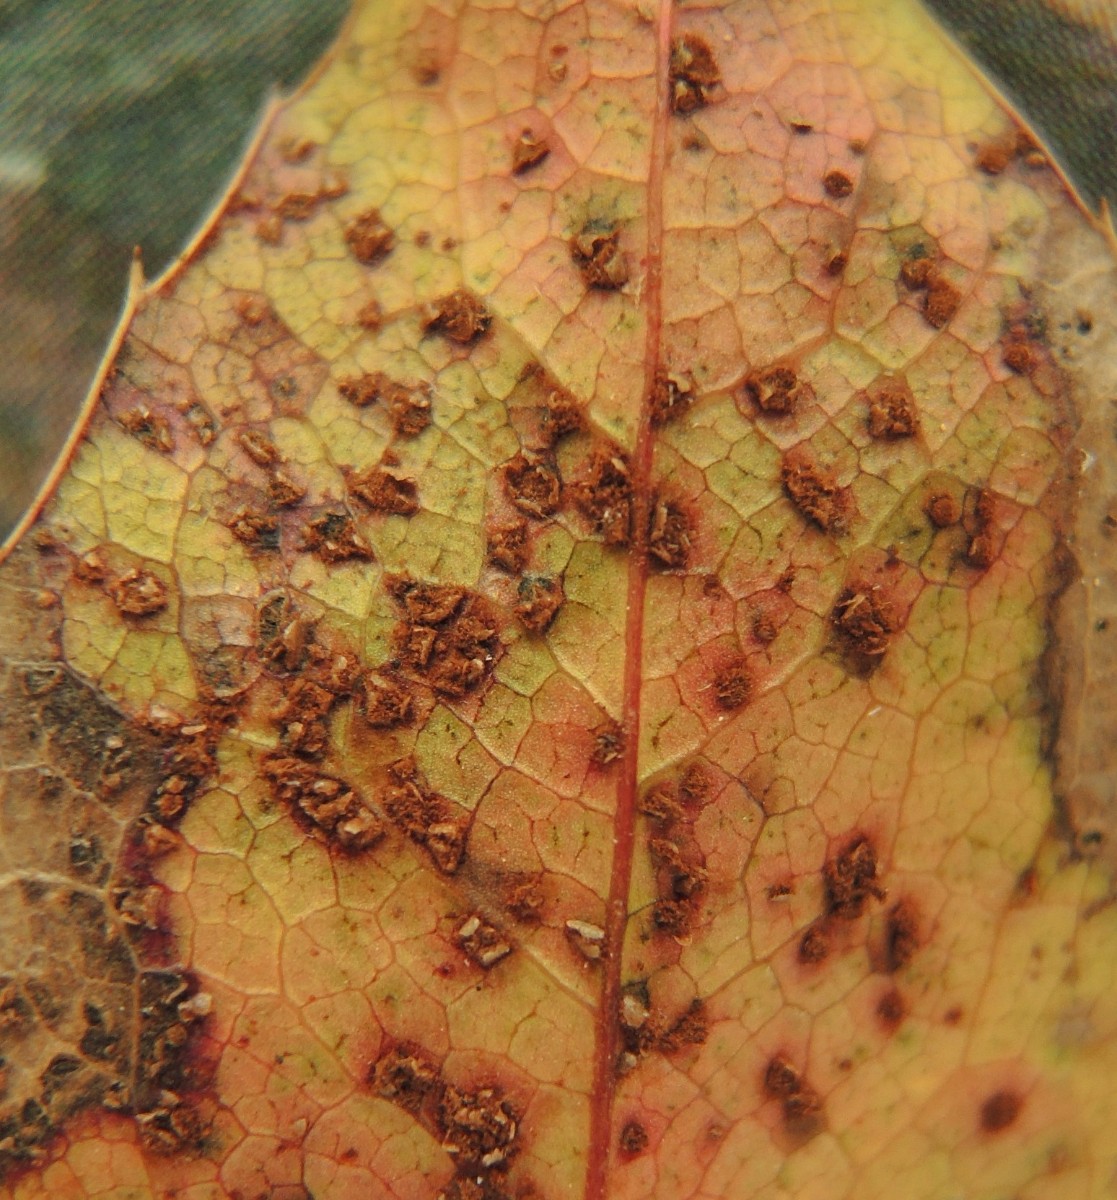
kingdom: Fungi
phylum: Basidiomycota
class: Pucciniomycetes
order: Pucciniales
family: Pucciniaceae
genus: Cumminsiella
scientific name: Cumminsiella mirabilissima
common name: mahonierust
